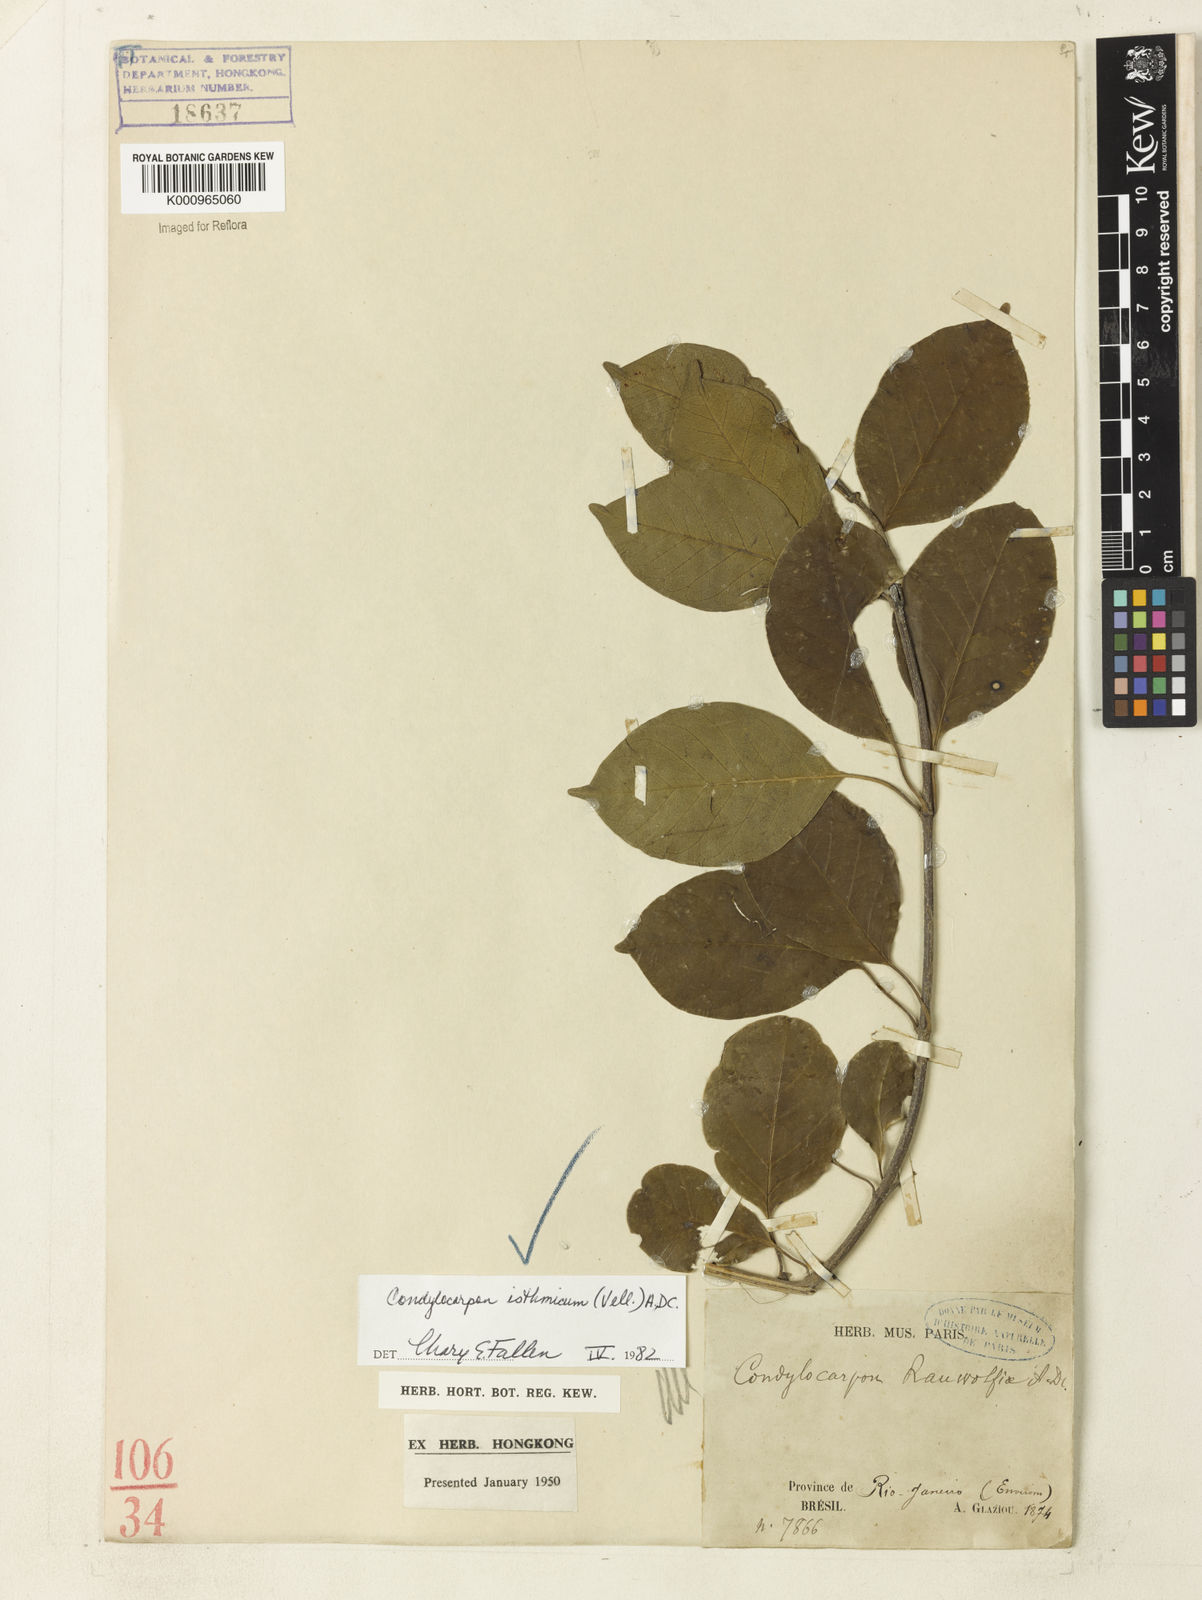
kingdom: Plantae
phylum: Tracheophyta
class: Magnoliopsida
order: Gentianales
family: Apocynaceae
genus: Condylocarpon
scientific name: Condylocarpon isthmicum
